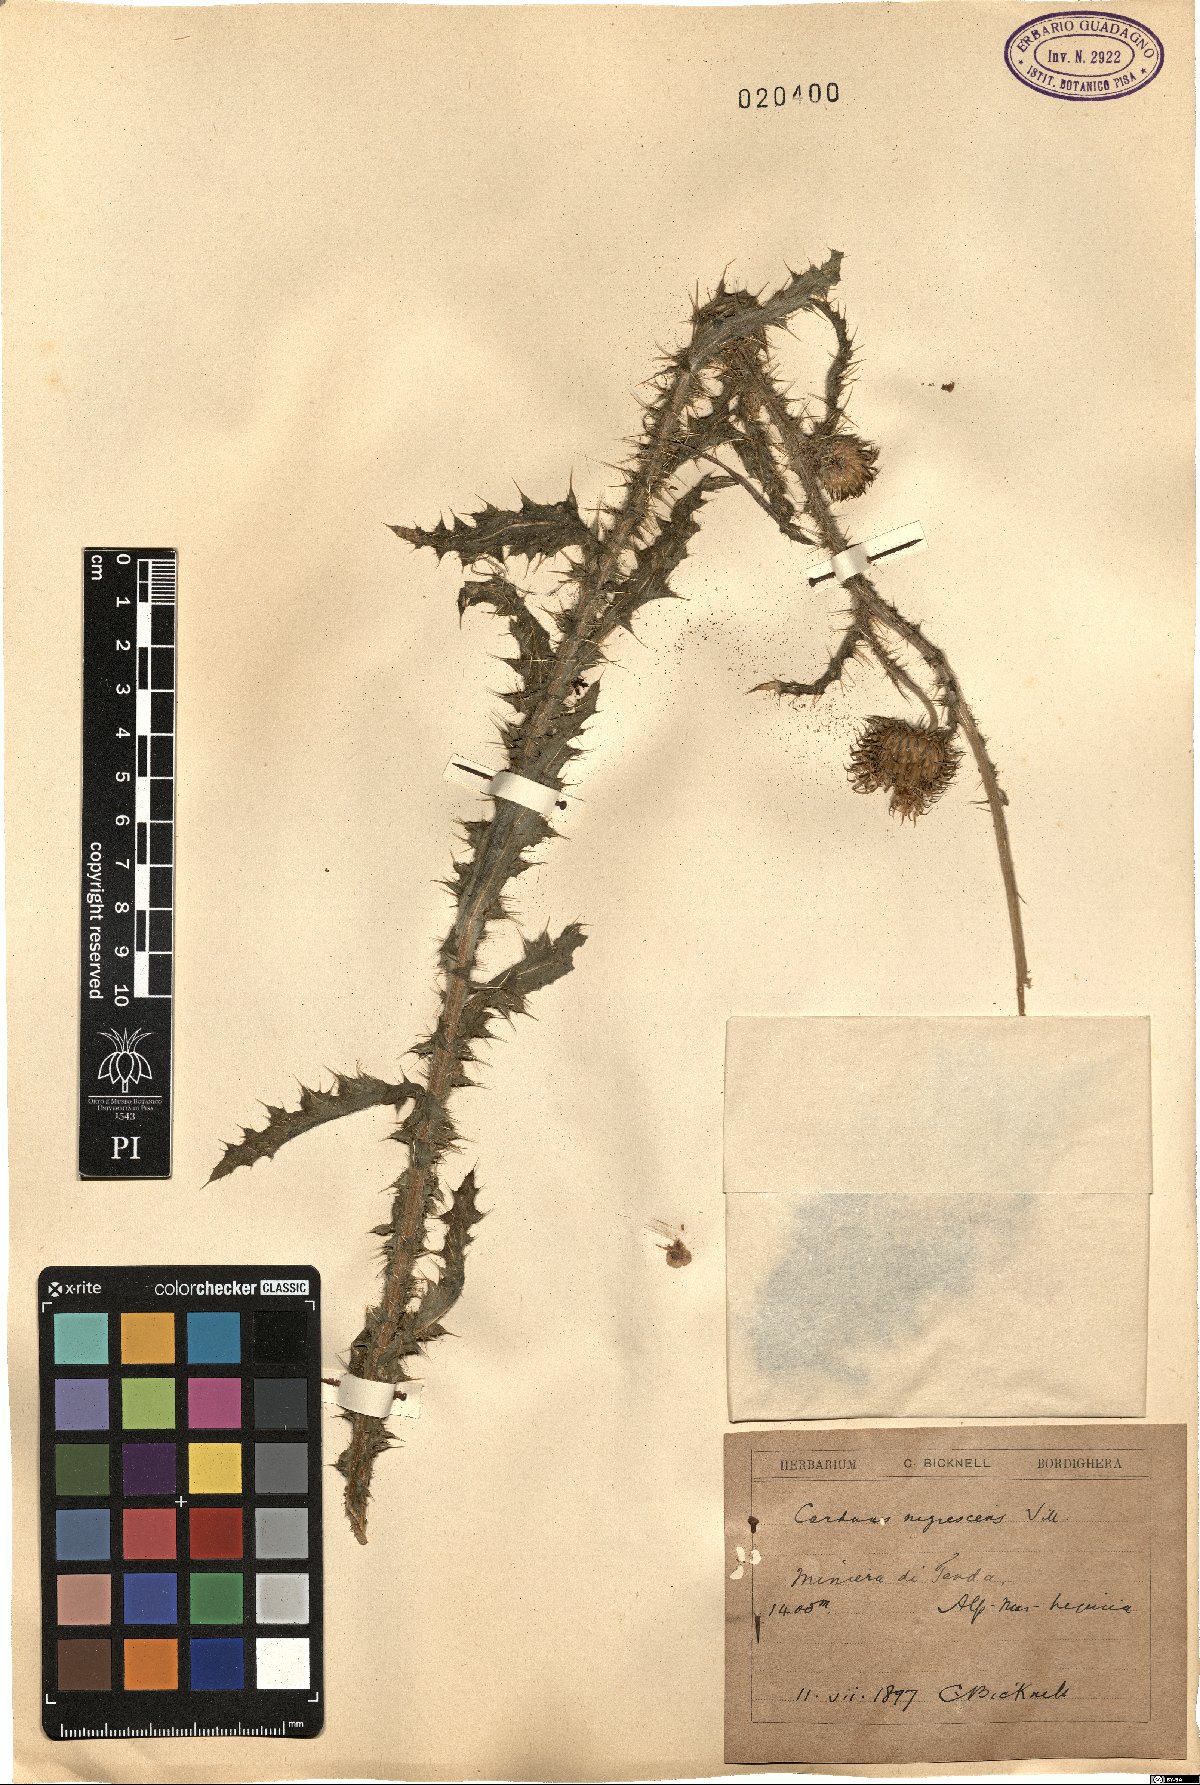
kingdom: Plantae
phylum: Tracheophyta
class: Magnoliopsida
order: Asterales
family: Asteraceae
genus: Carduus
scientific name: Carduus nigrescens
